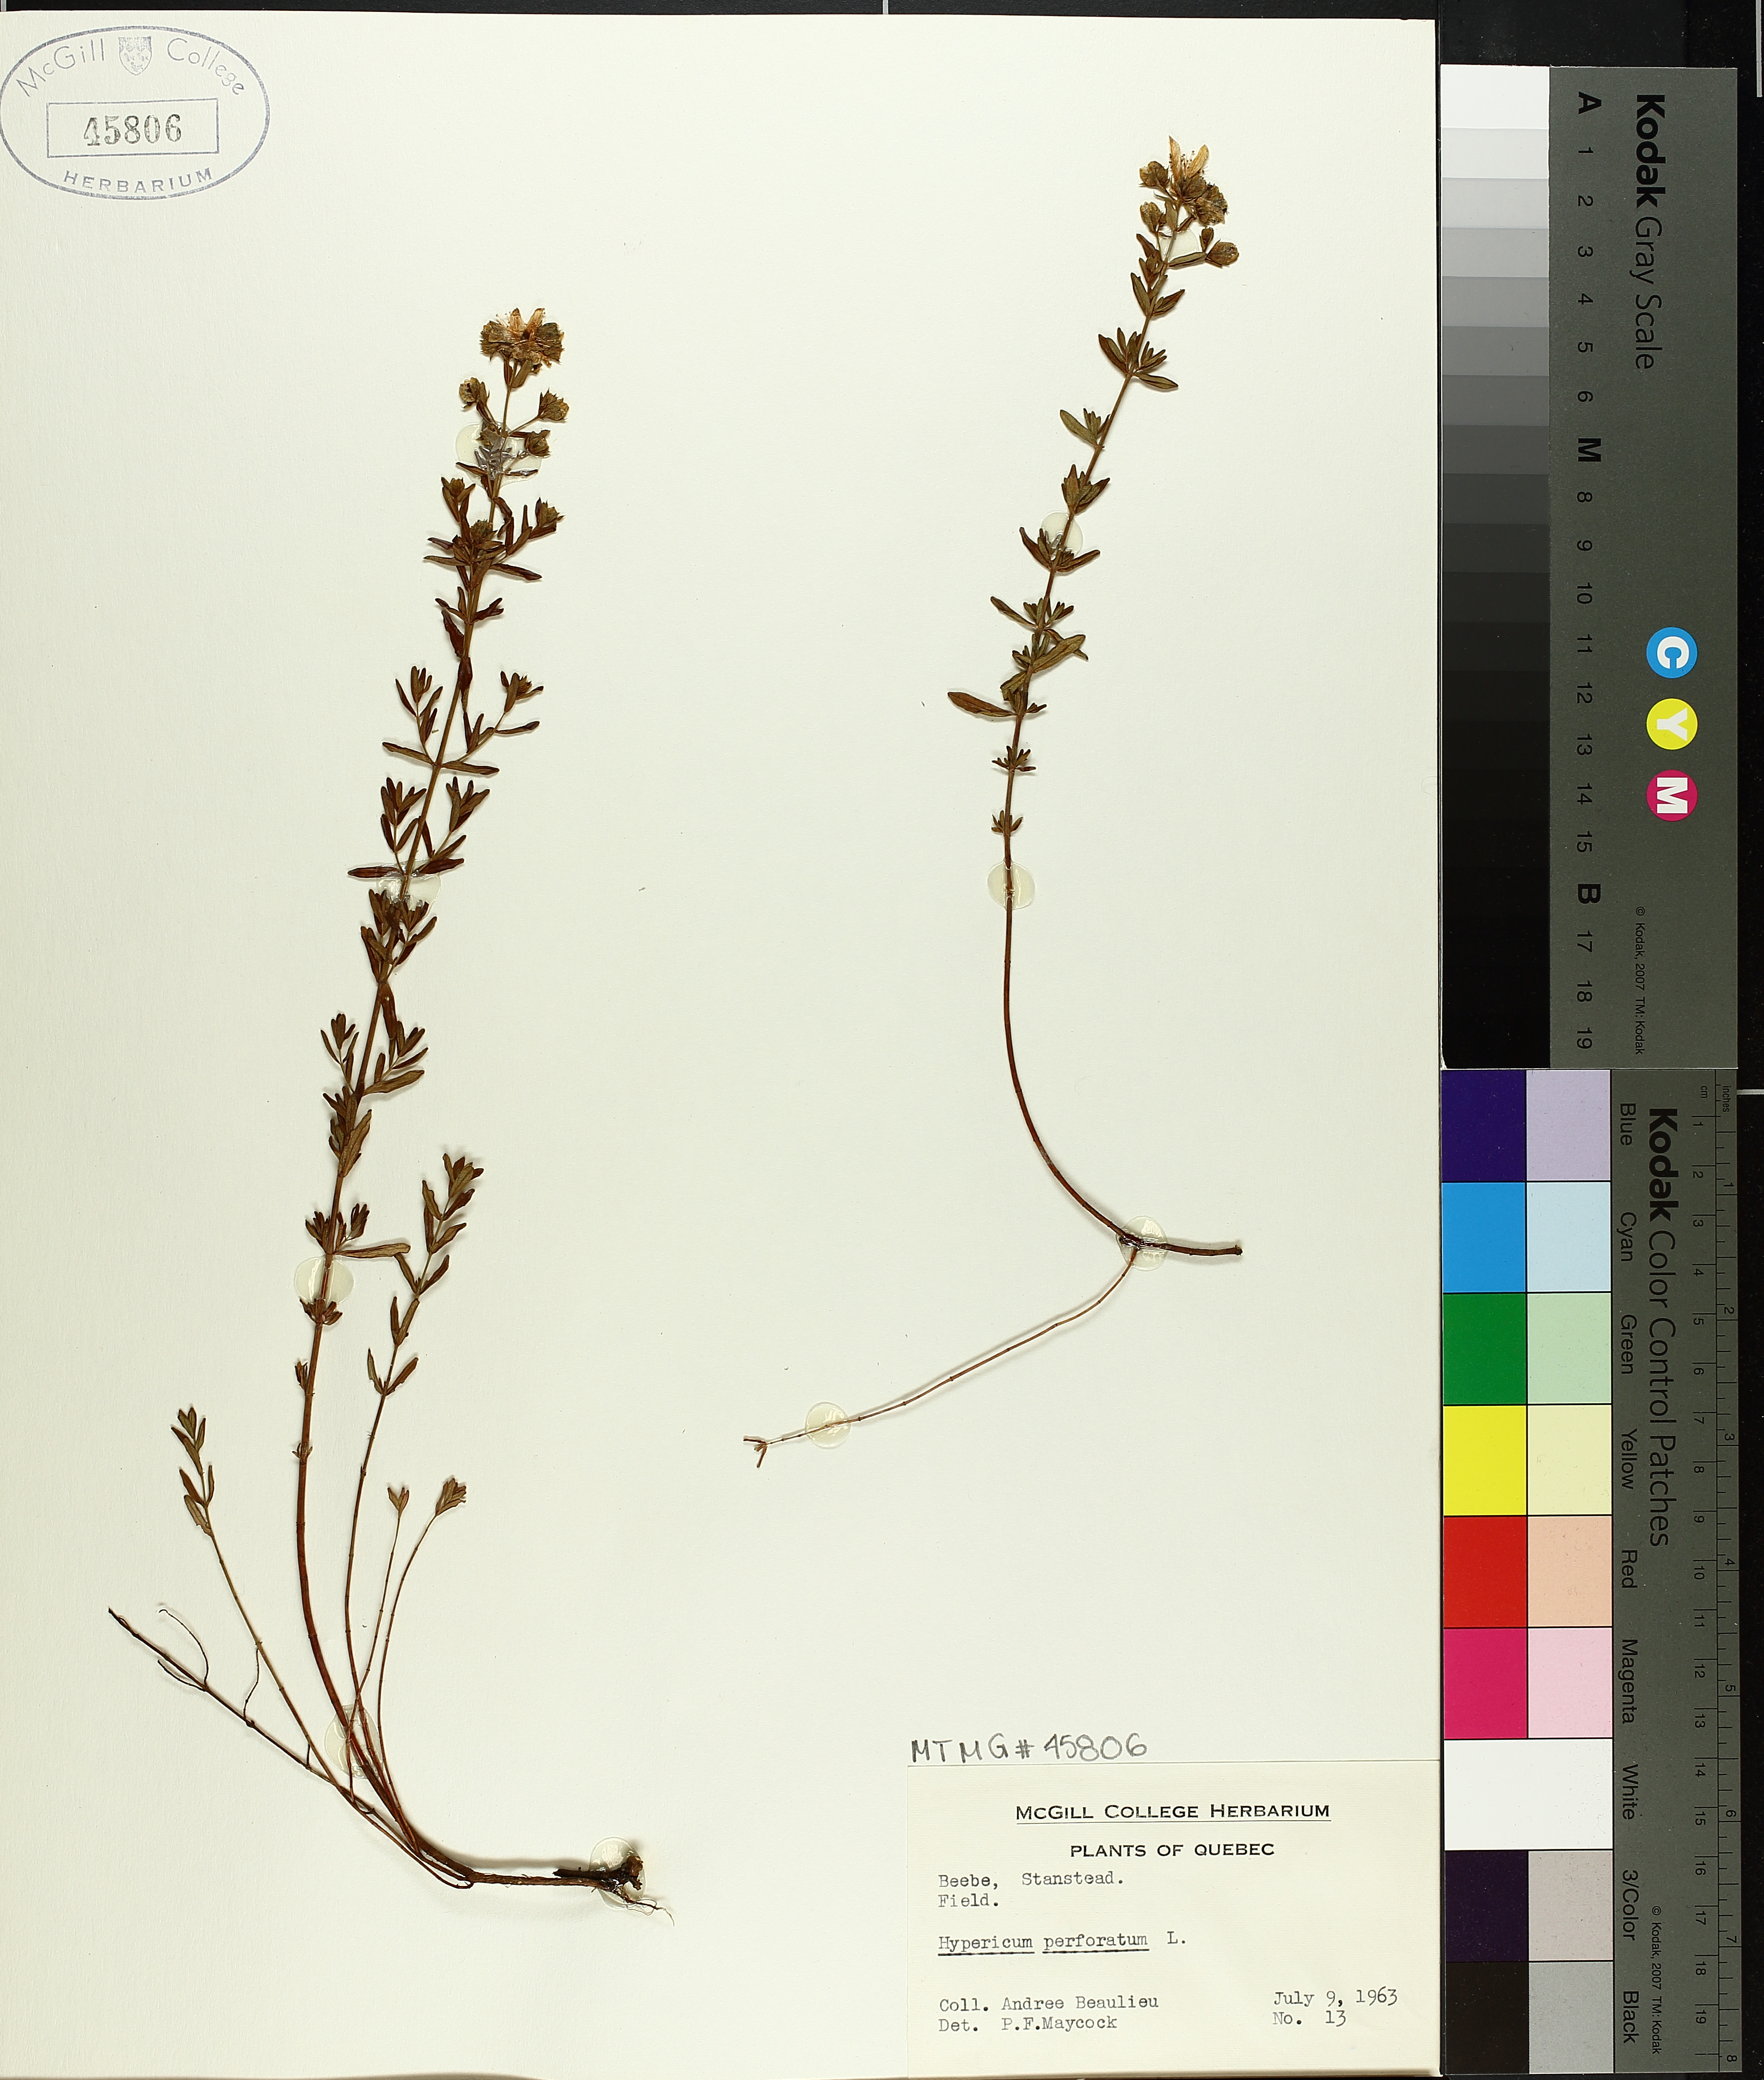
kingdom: Plantae
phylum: Tracheophyta
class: Magnoliopsida
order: Malpighiales
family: Hypericaceae
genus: Hypericum
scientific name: Hypericum perforatum
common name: Common st. johnswort
